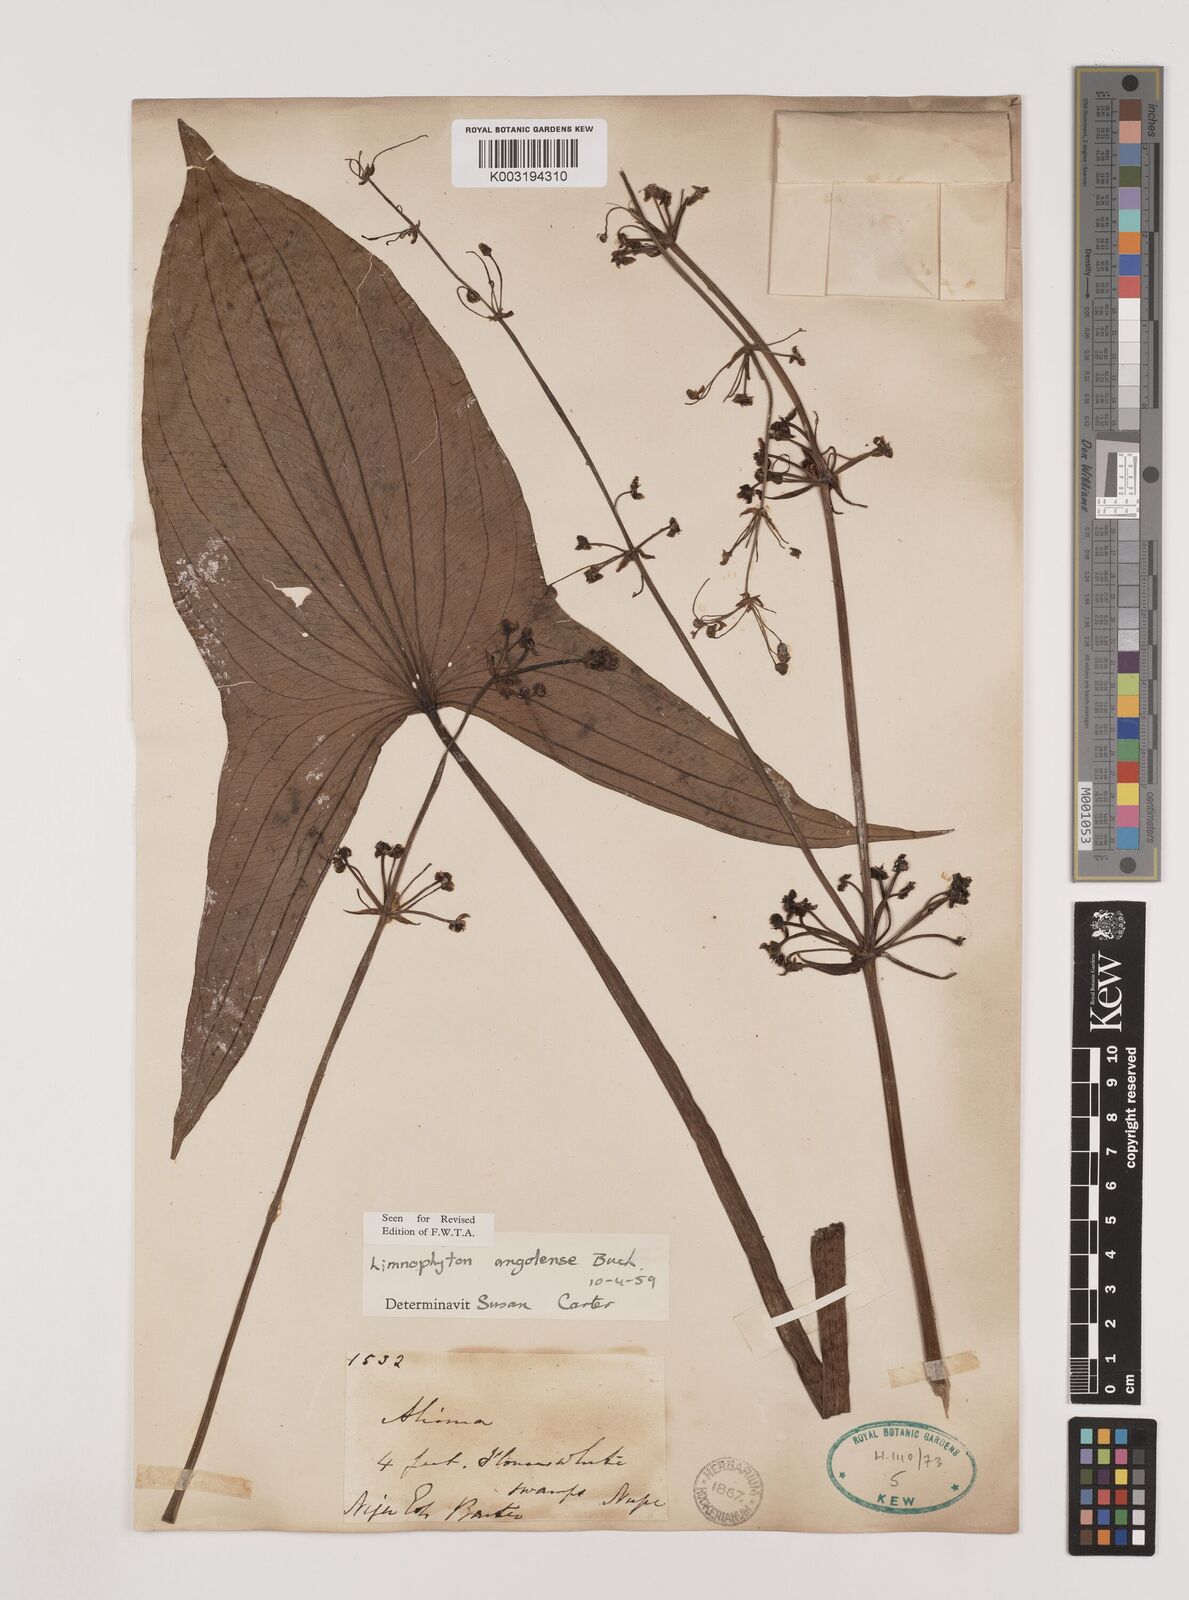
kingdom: Plantae
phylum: Tracheophyta
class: Liliopsida
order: Alismatales
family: Alismataceae
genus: Limnophyton
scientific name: Limnophyton angolense
